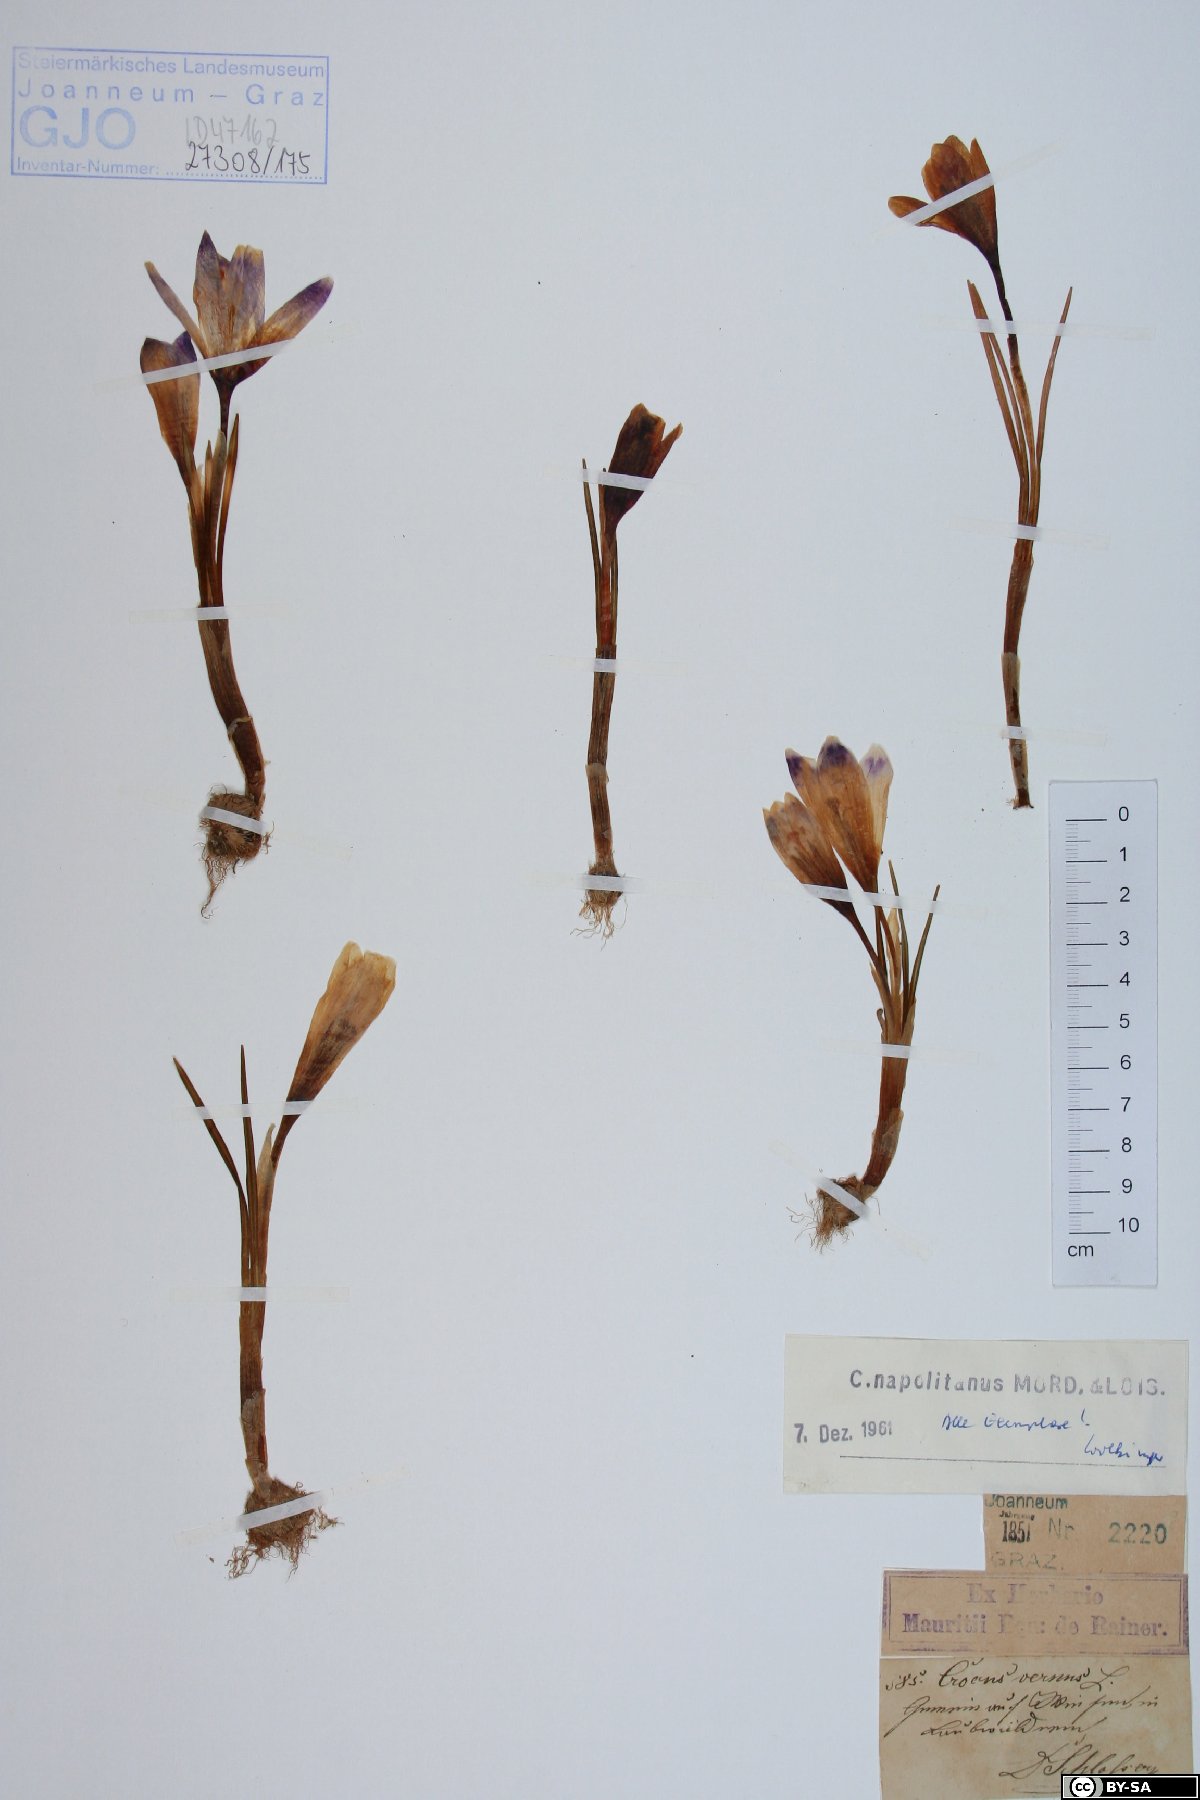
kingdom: Plantae
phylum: Tracheophyta
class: Liliopsida
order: Asparagales
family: Iridaceae
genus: Crocus
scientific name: Crocus vernus
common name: Spring crocus
